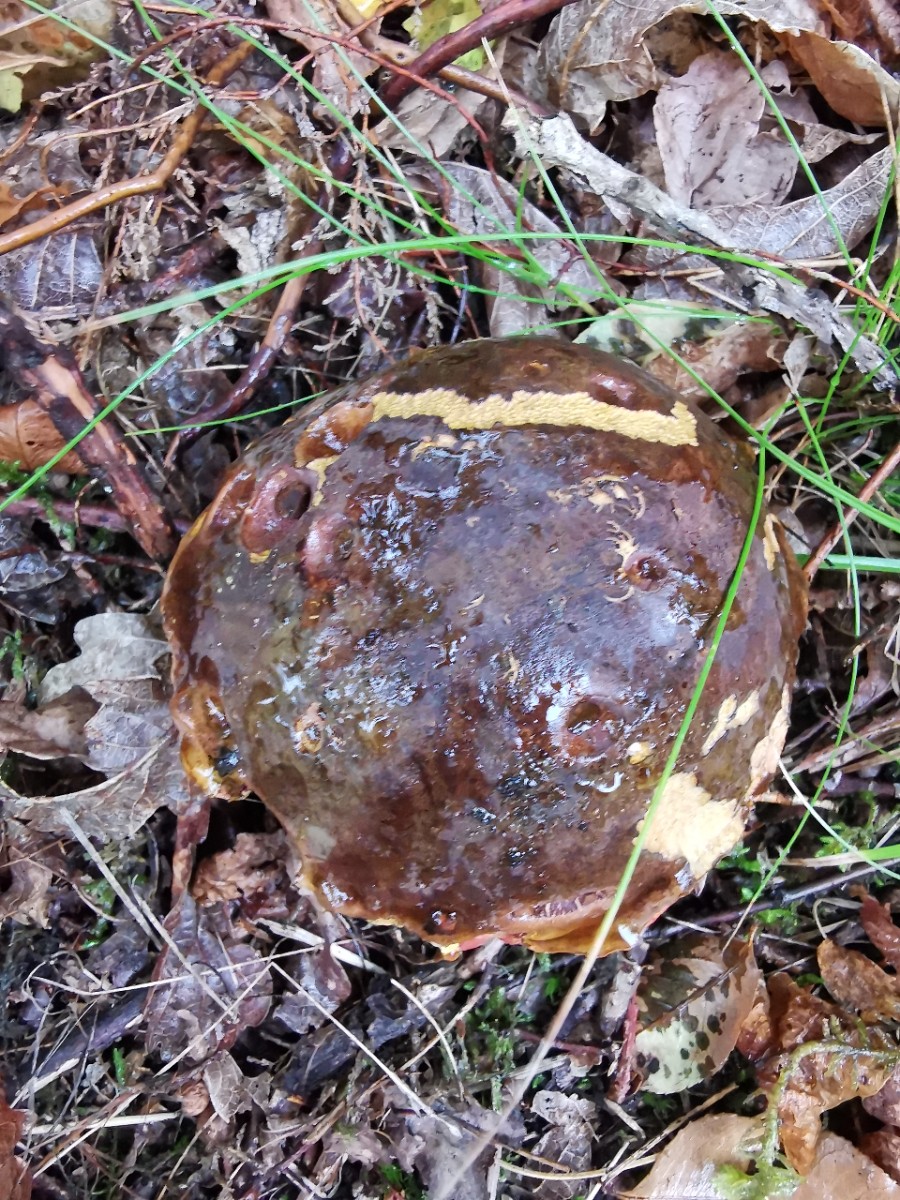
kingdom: Fungi
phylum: Basidiomycota
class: Agaricomycetes
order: Boletales
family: Boletaceae
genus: Neoboletus
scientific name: Neoboletus erythropus
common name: punktstokket indigorørhat
